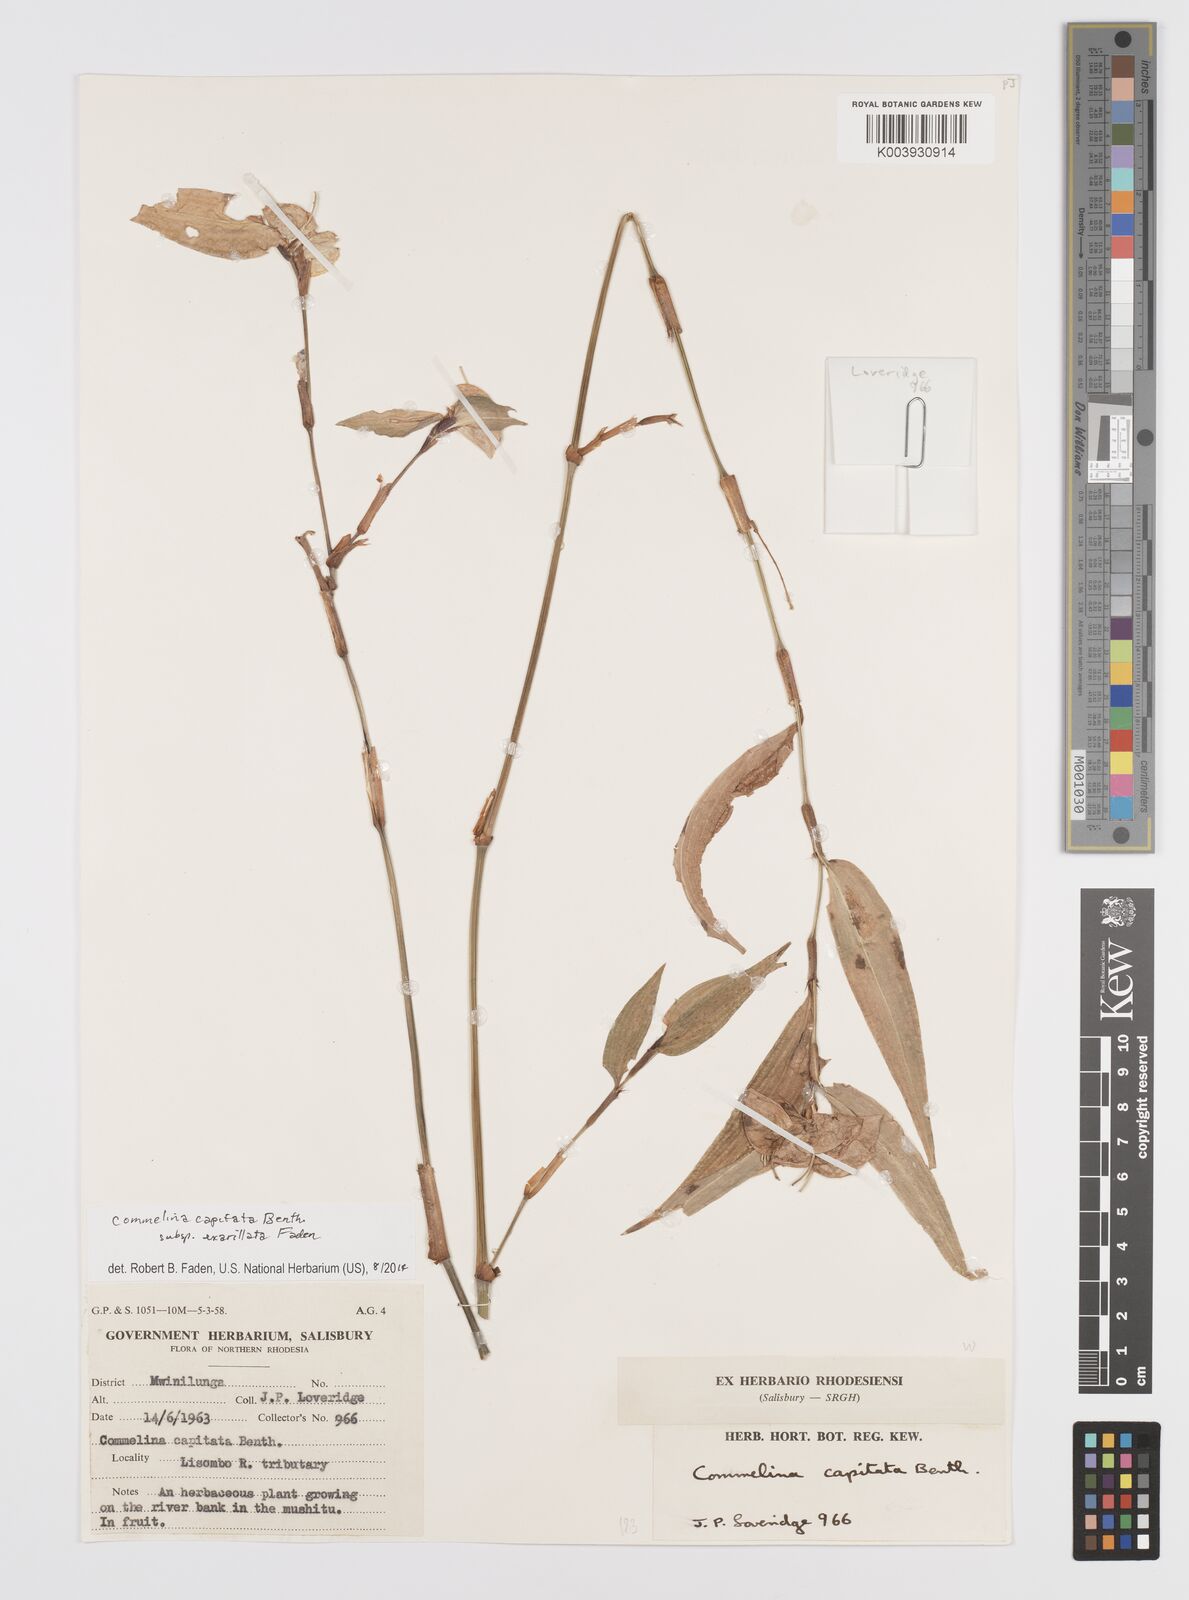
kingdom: Plantae
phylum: Tracheophyta
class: Liliopsida
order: Commelinales
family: Commelinaceae
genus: Commelina
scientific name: Commelina capitata
